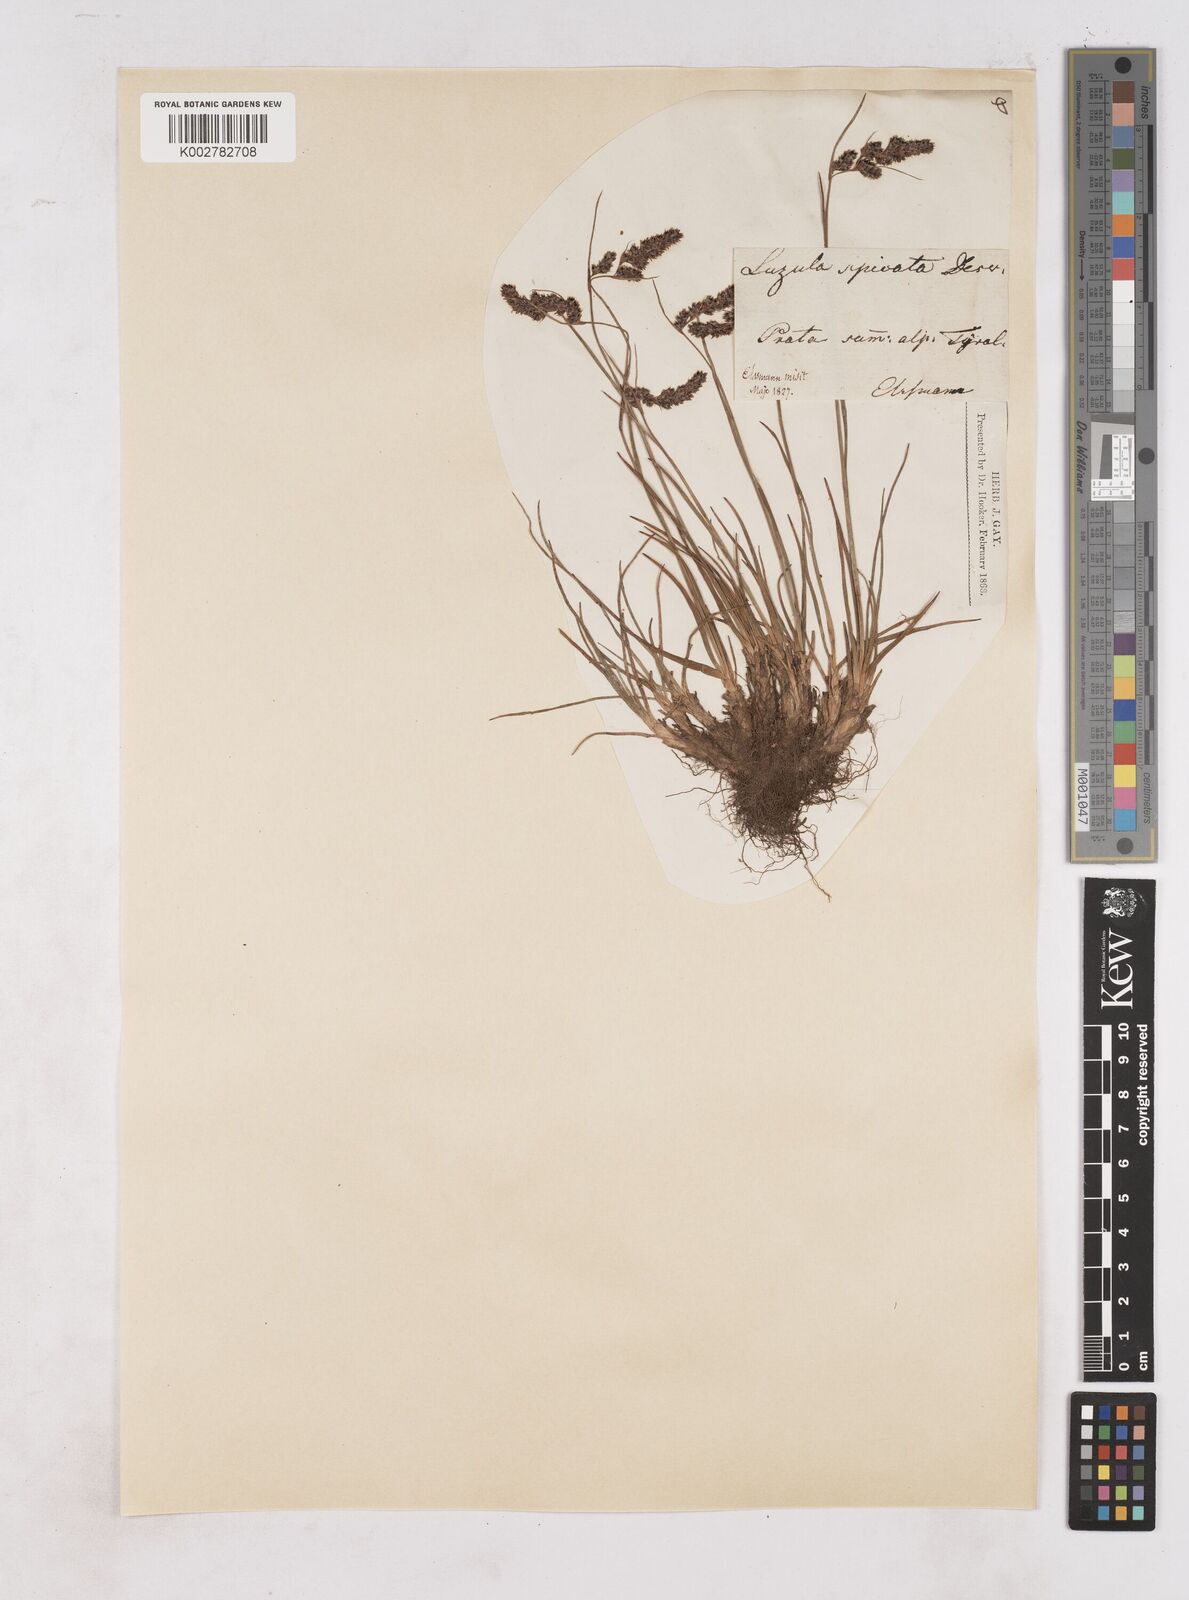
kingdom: Plantae
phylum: Tracheophyta
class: Liliopsida
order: Poales
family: Juncaceae
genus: Luzula
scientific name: Luzula spicata
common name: Spiked wood-rush
